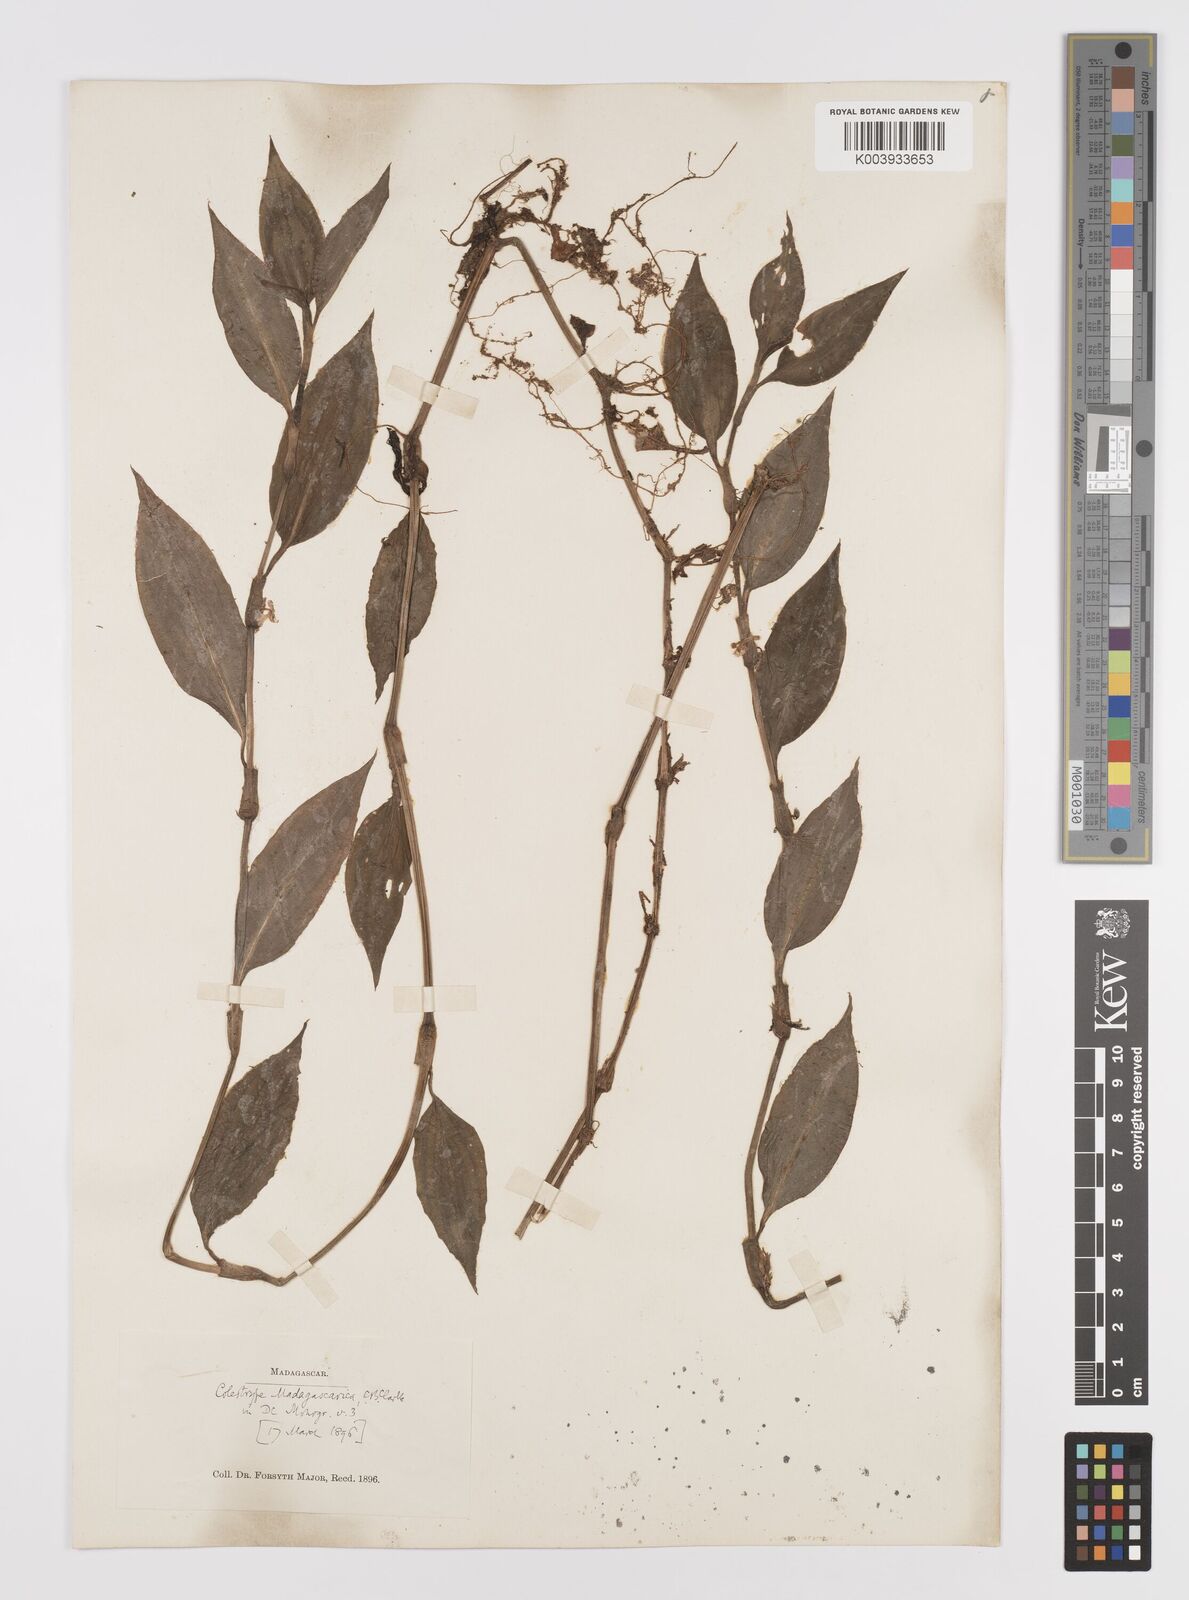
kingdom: Plantae
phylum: Tracheophyta
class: Liliopsida
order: Commelinales
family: Commelinaceae
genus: Coleotrype
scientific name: Coleotrype madagascarica
